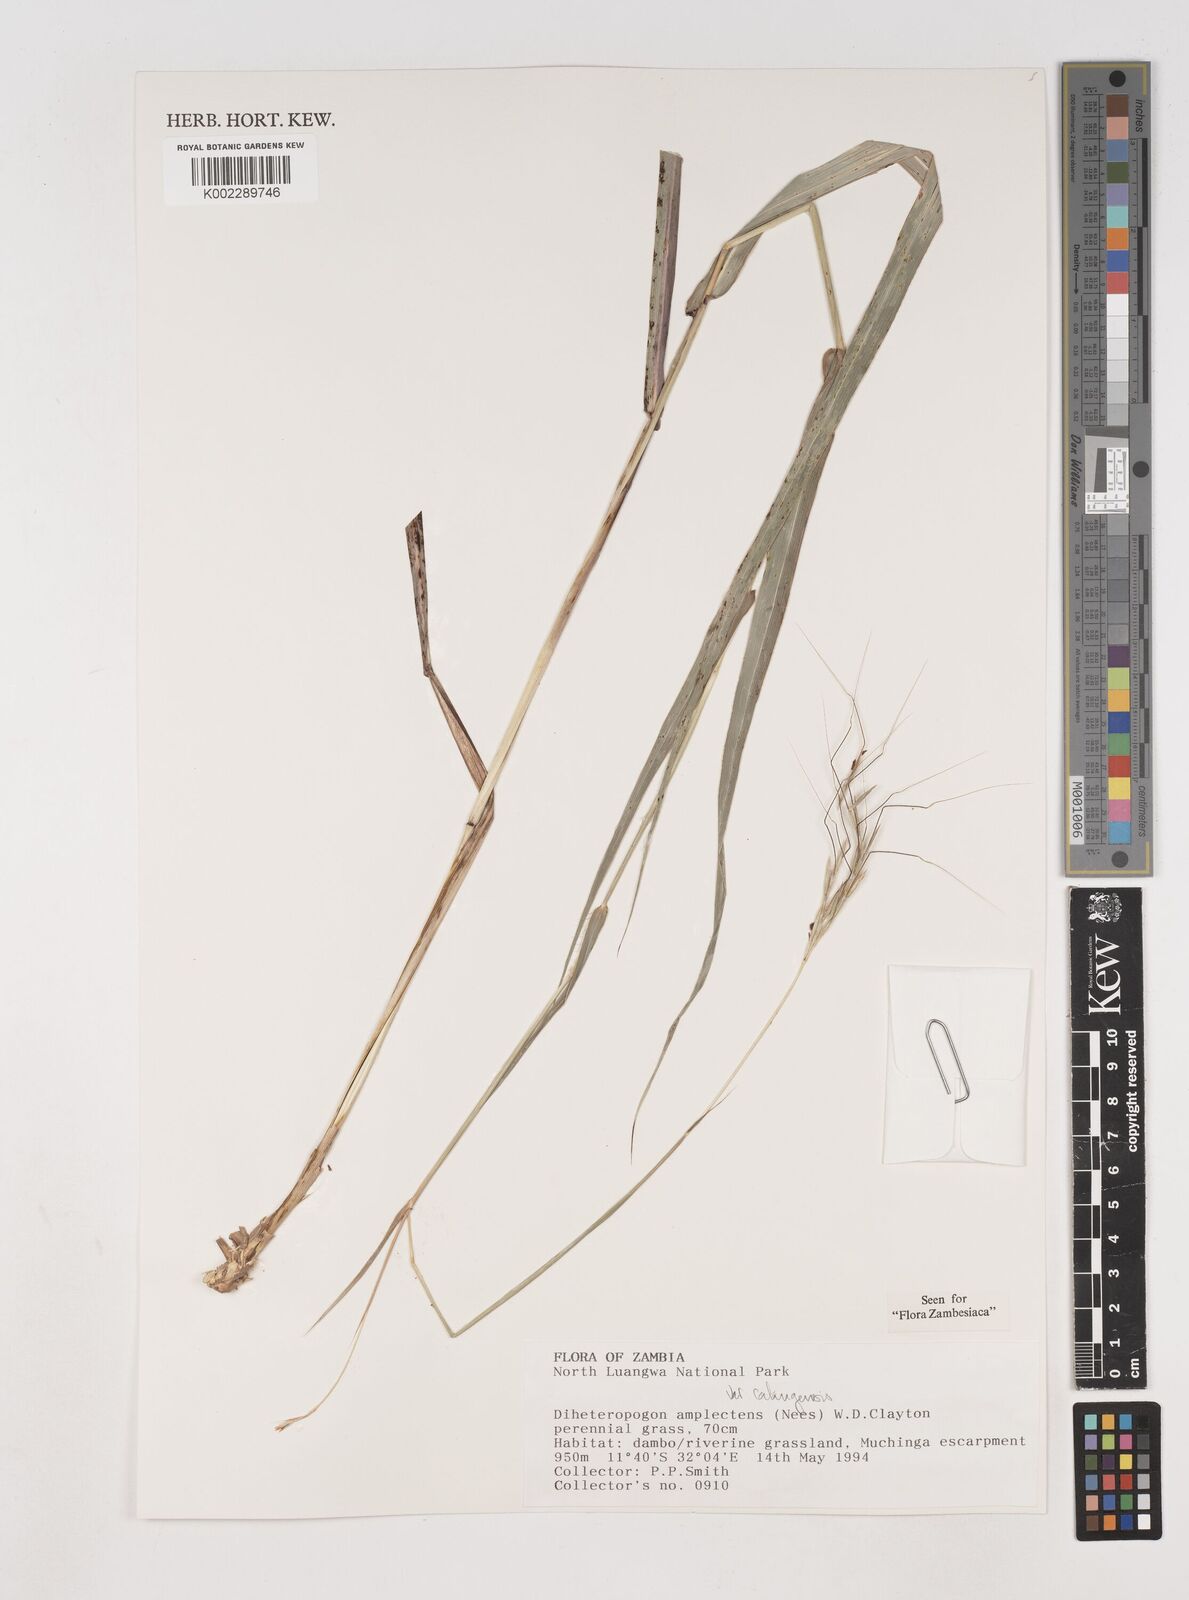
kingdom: Plantae
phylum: Tracheophyta
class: Liliopsida
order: Poales
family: Poaceae
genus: Diheteropogon
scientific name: Diheteropogon amplectens
